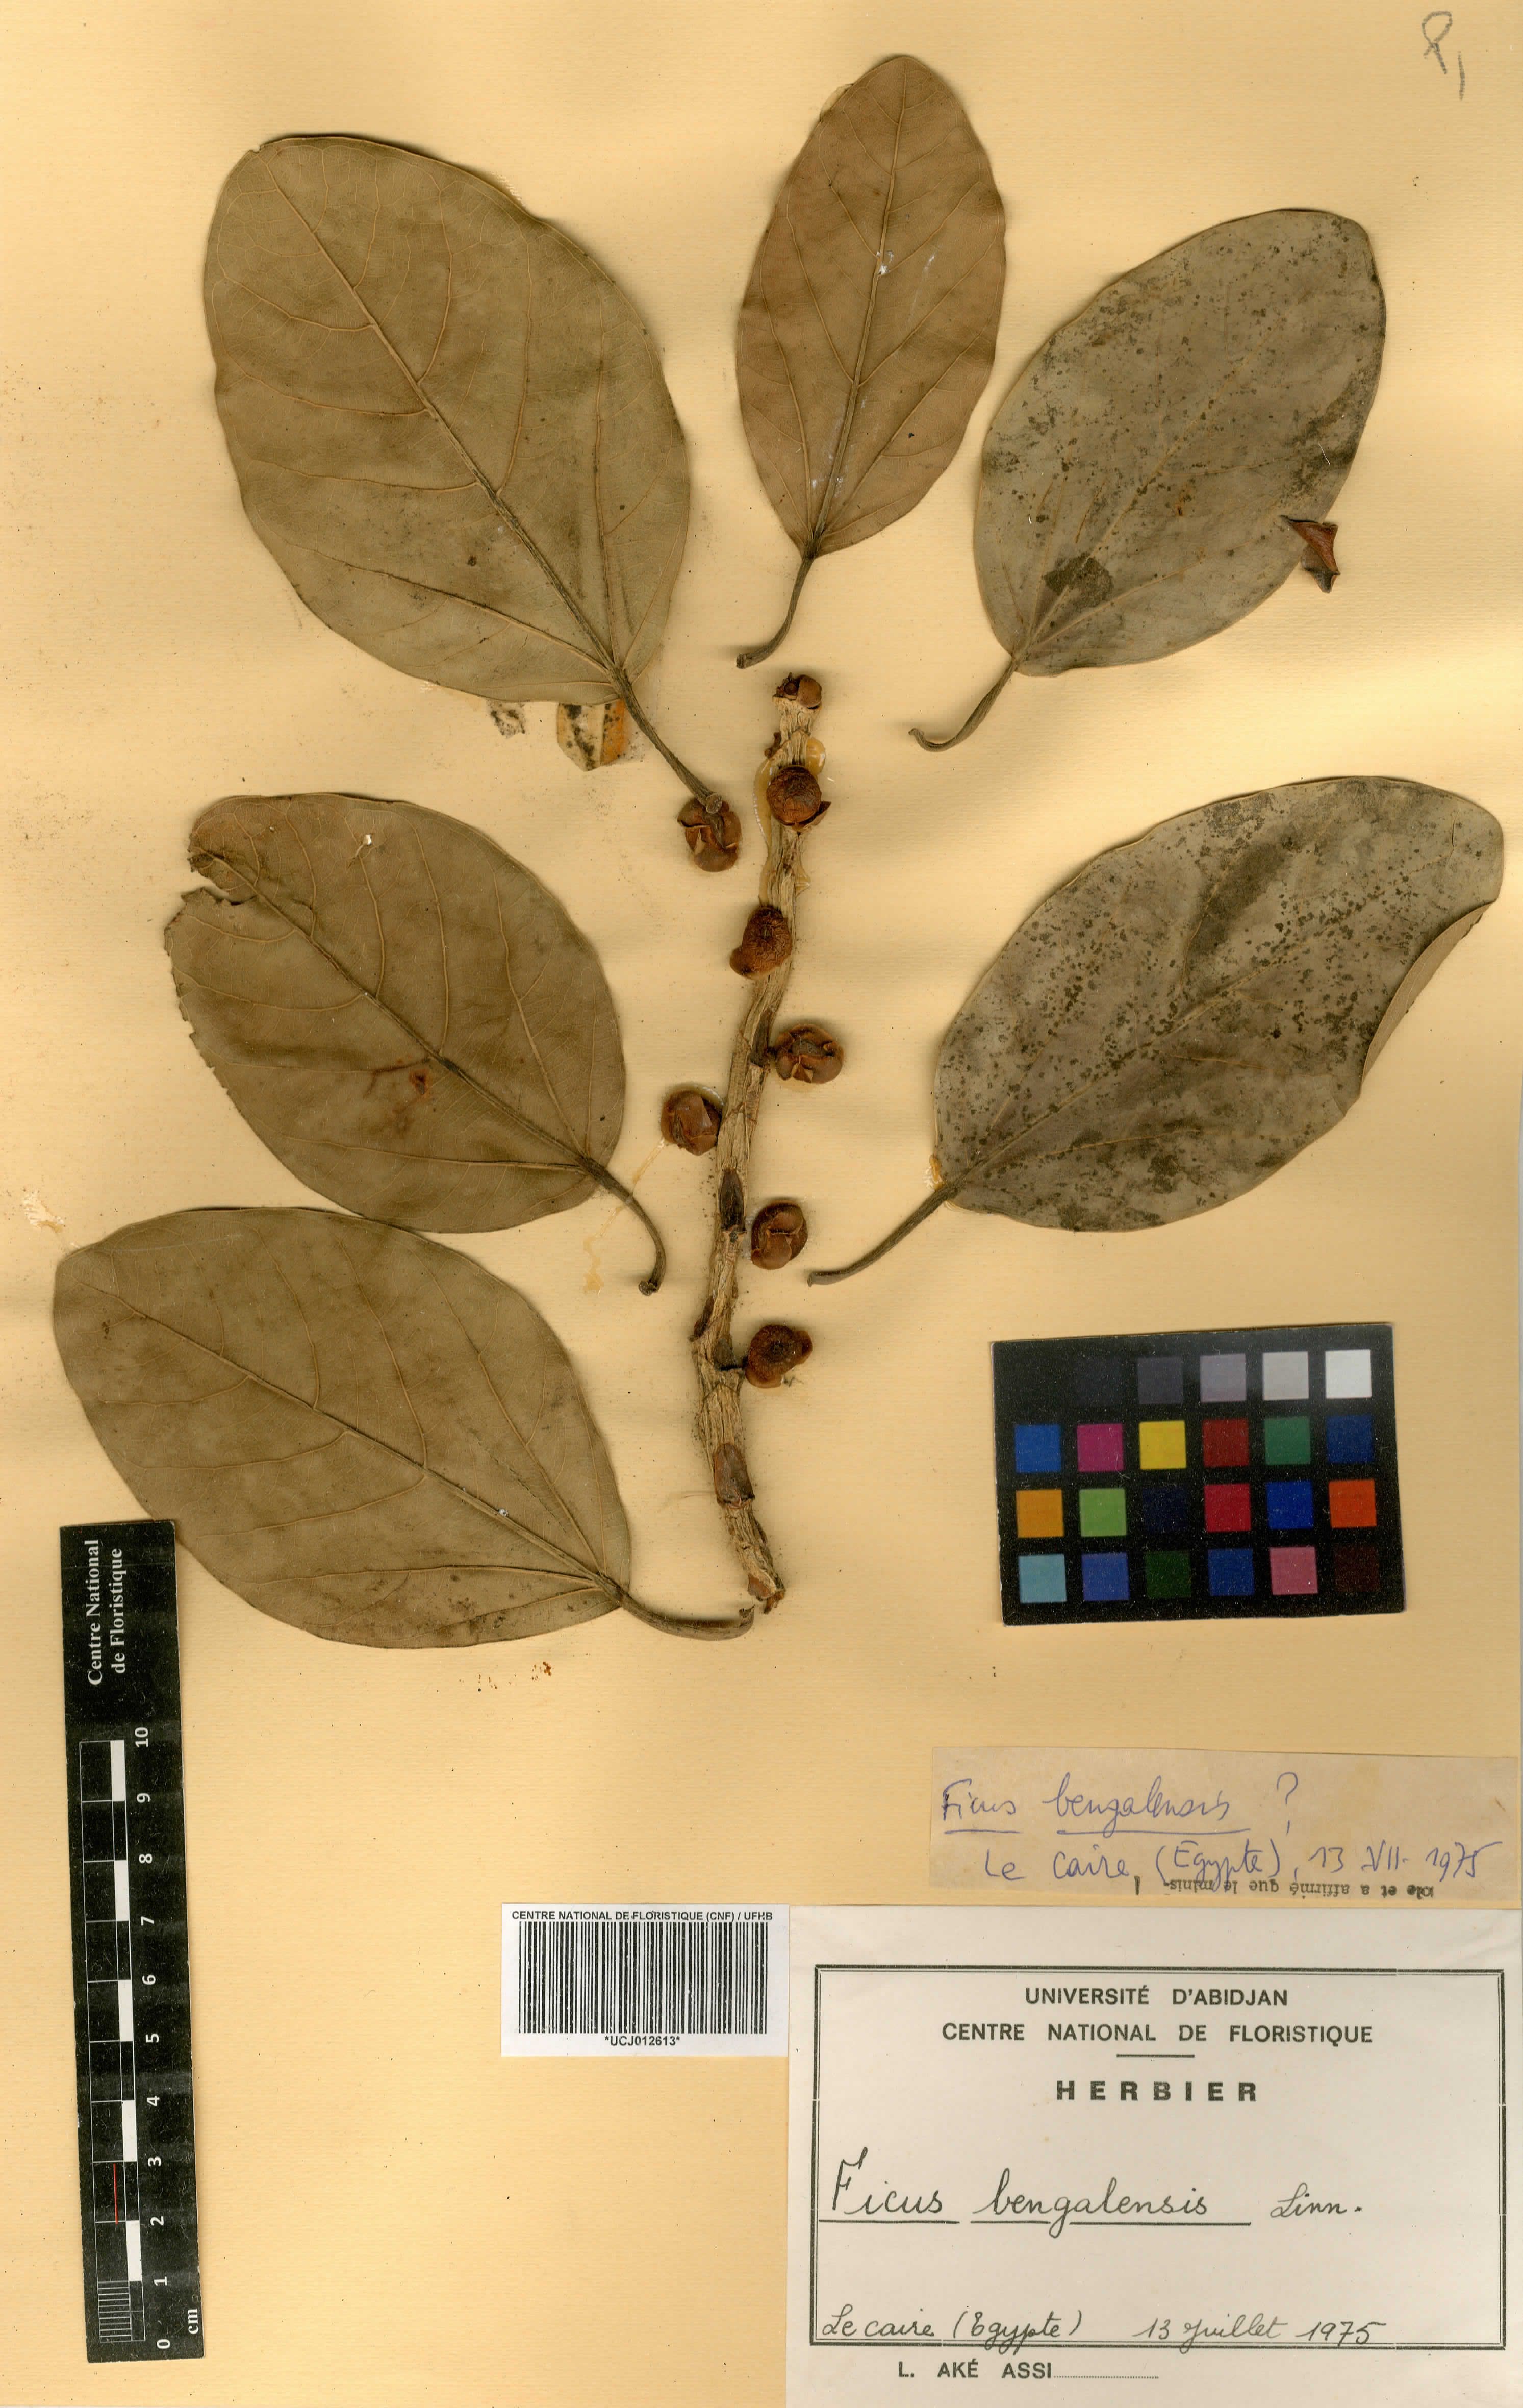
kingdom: Plantae
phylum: Tracheophyta
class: Magnoliopsida
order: Rosales
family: Moraceae
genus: Ficus
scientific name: Ficus benghalensis
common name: Indian banyan
